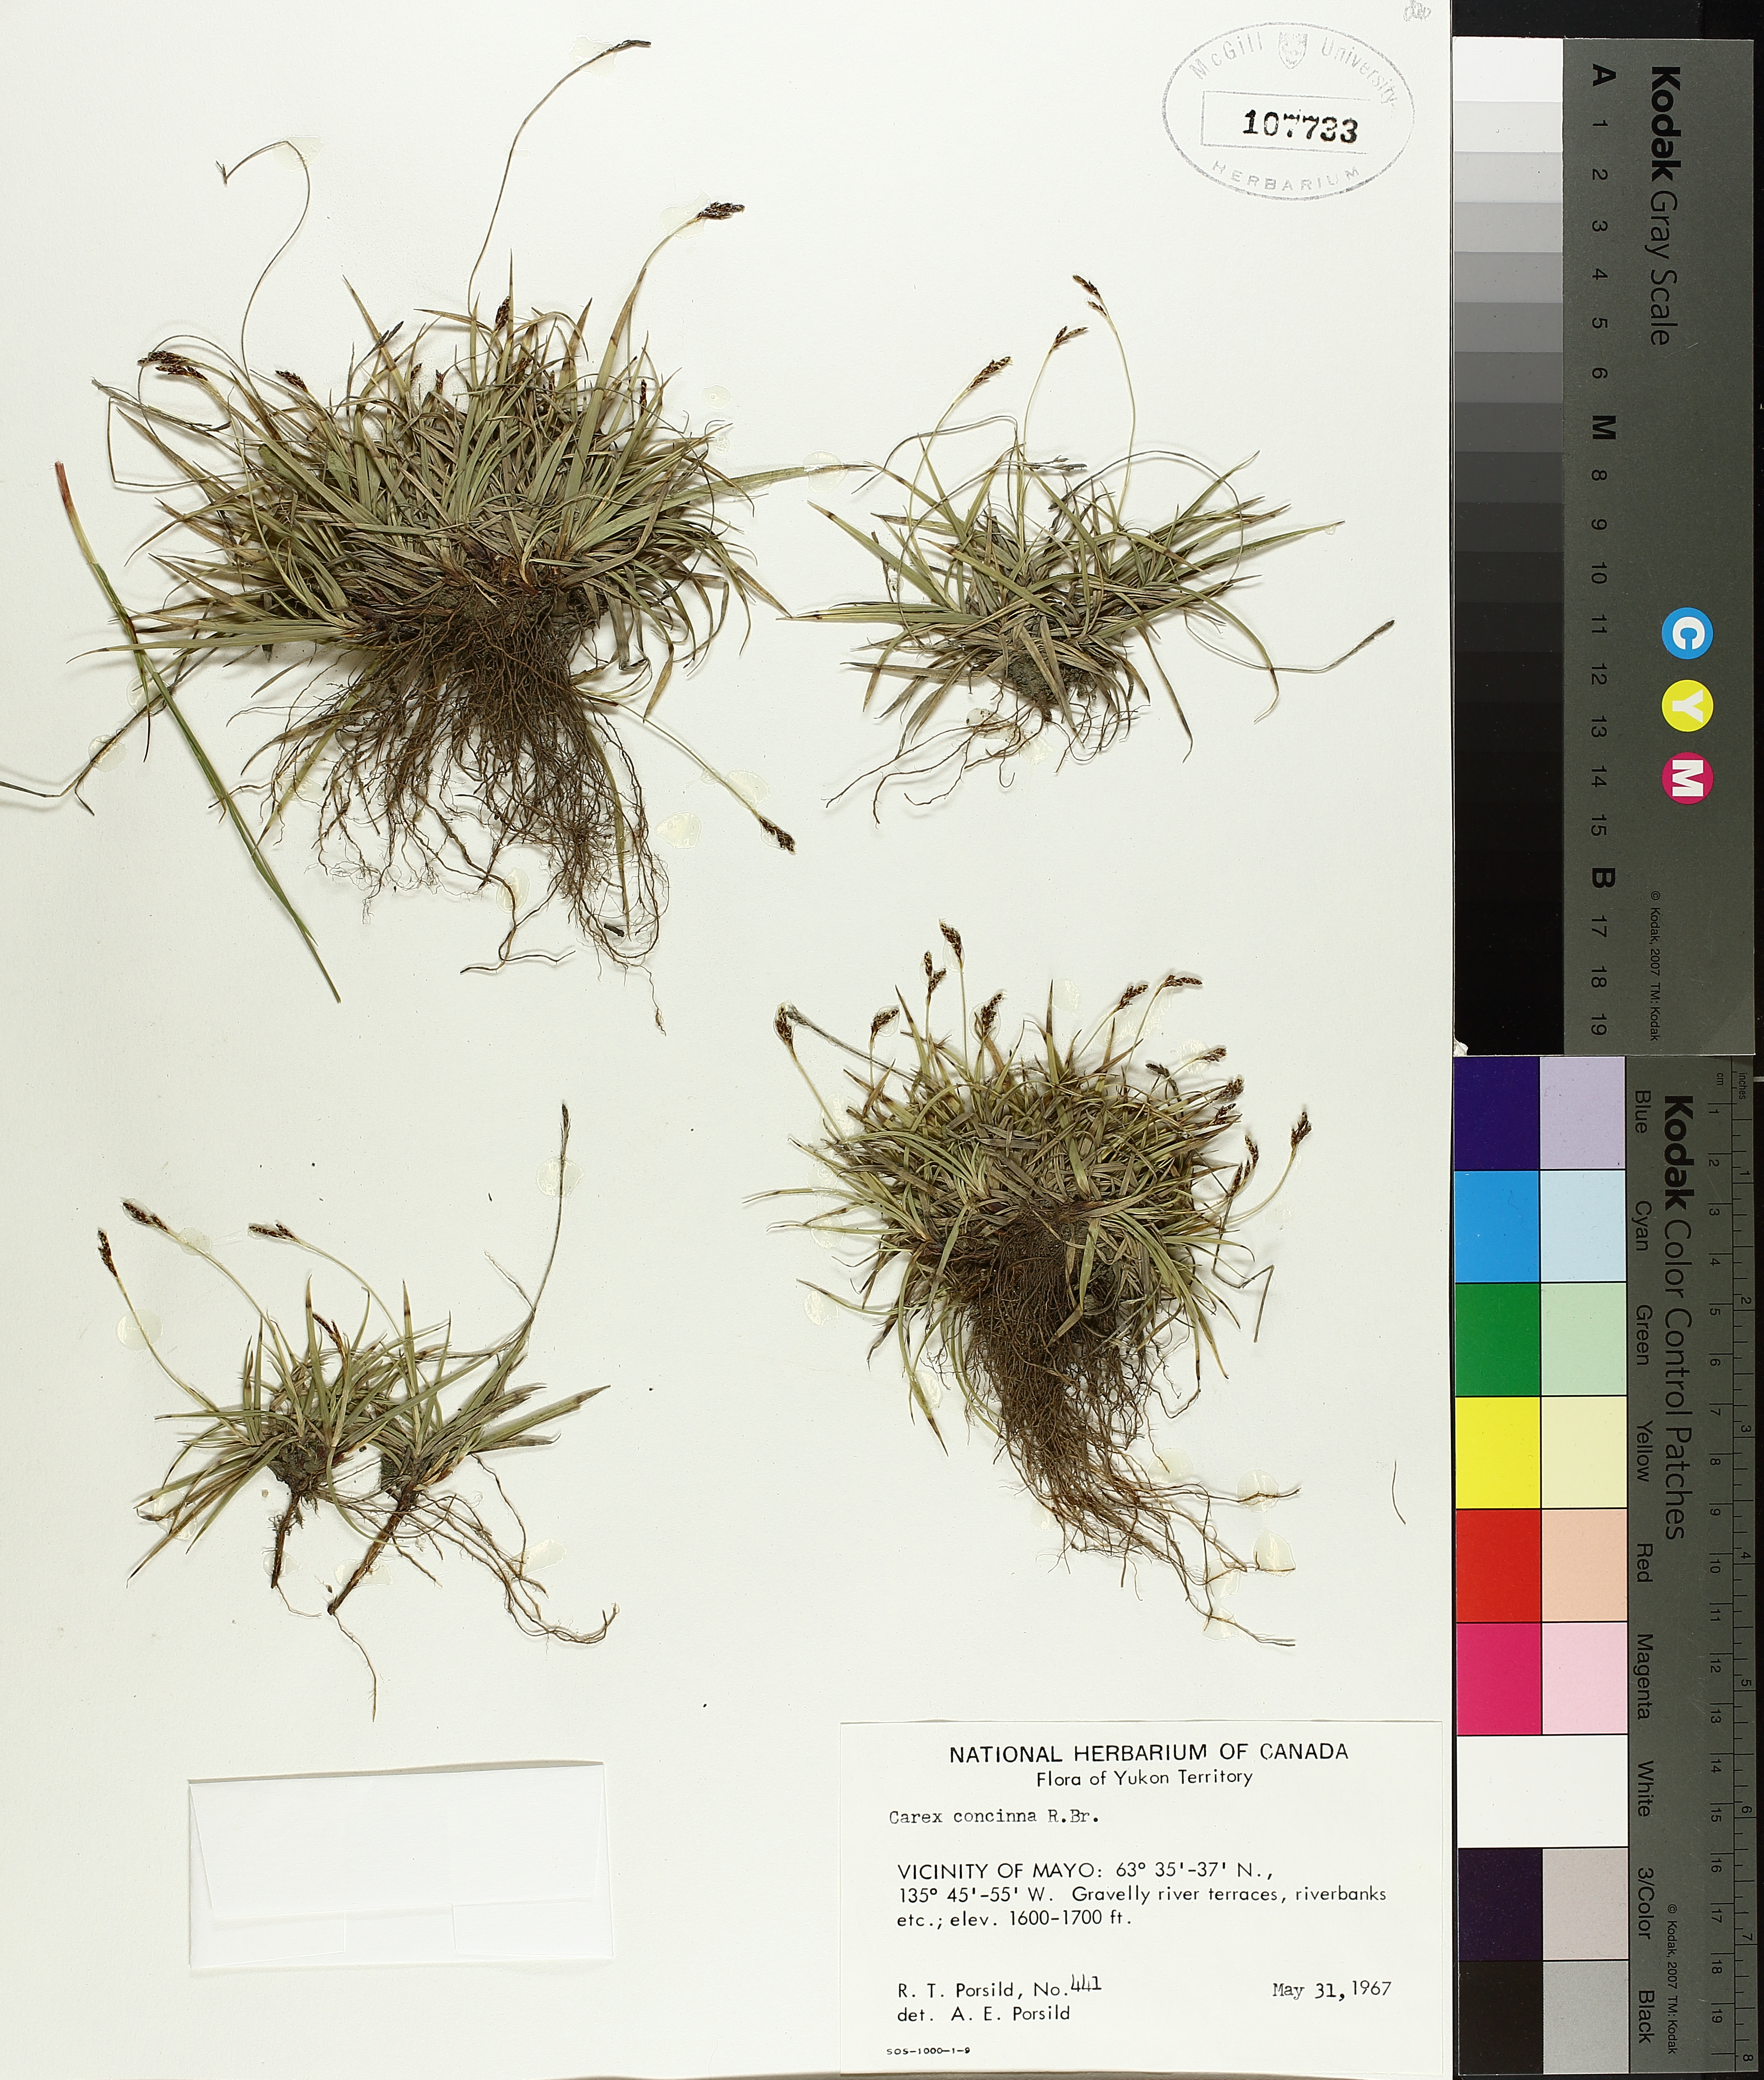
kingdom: Plantae
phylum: Tracheophyta
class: Liliopsida
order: Poales
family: Cyperaceae
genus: Carex
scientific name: Carex concinna
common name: Beautiful sedge
